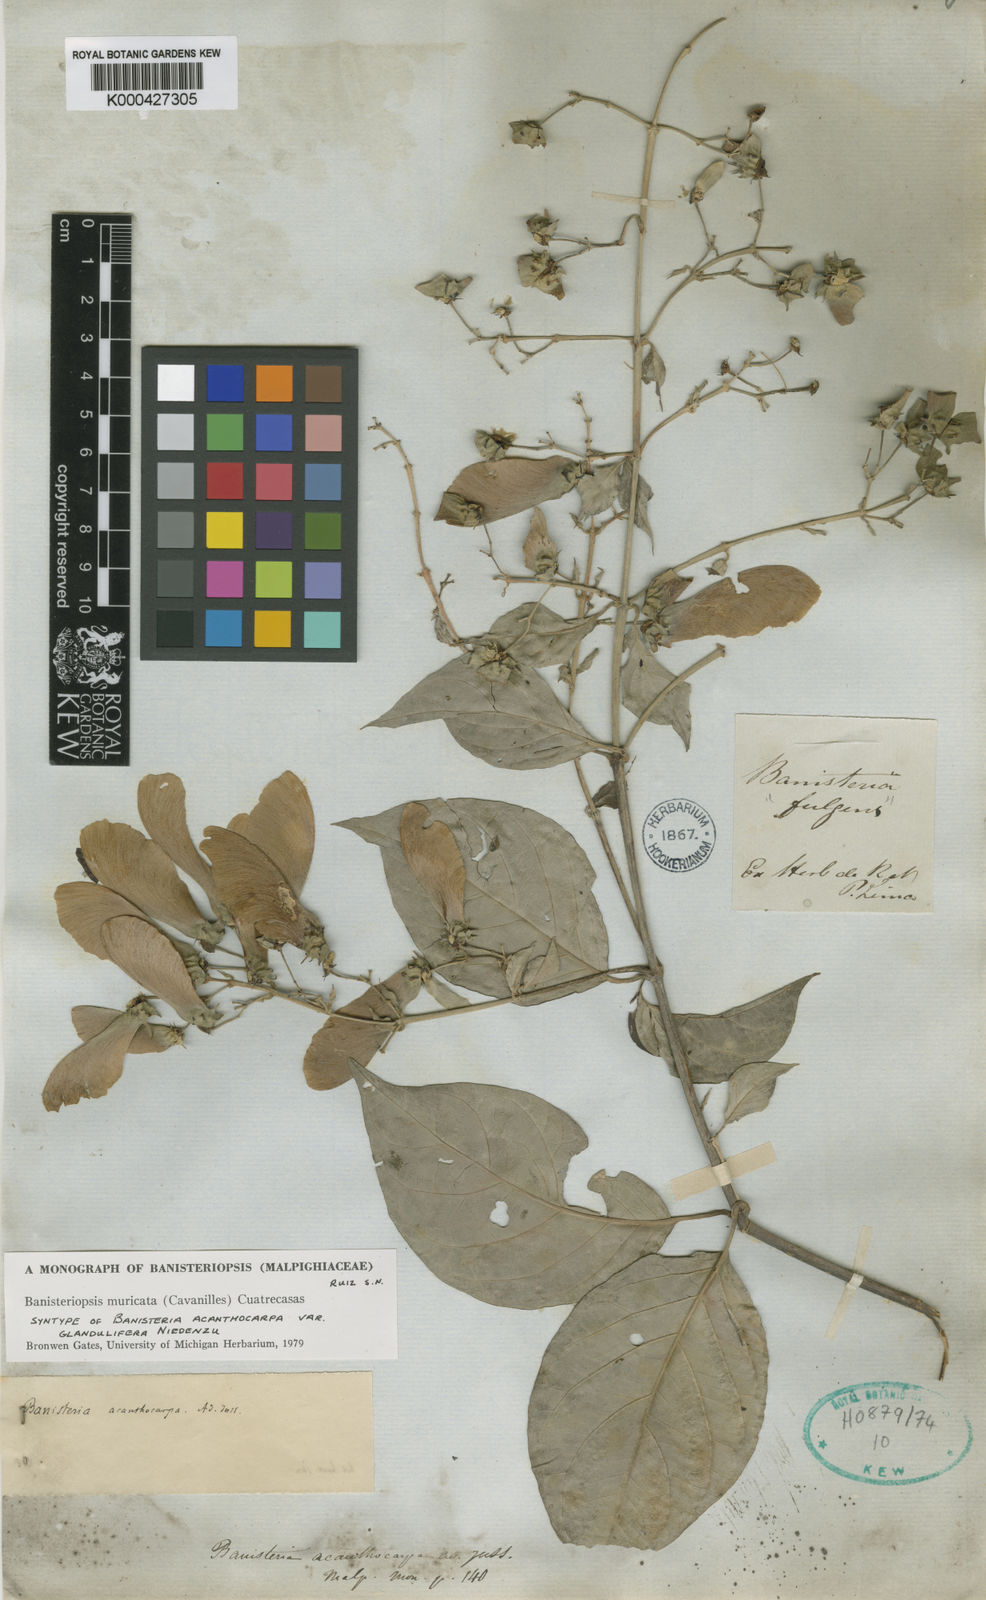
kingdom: Plantae
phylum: Tracheophyta
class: Magnoliopsida
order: Malpighiales
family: Malpighiaceae
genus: Banisteriopsis
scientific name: Banisteriopsis muricata
